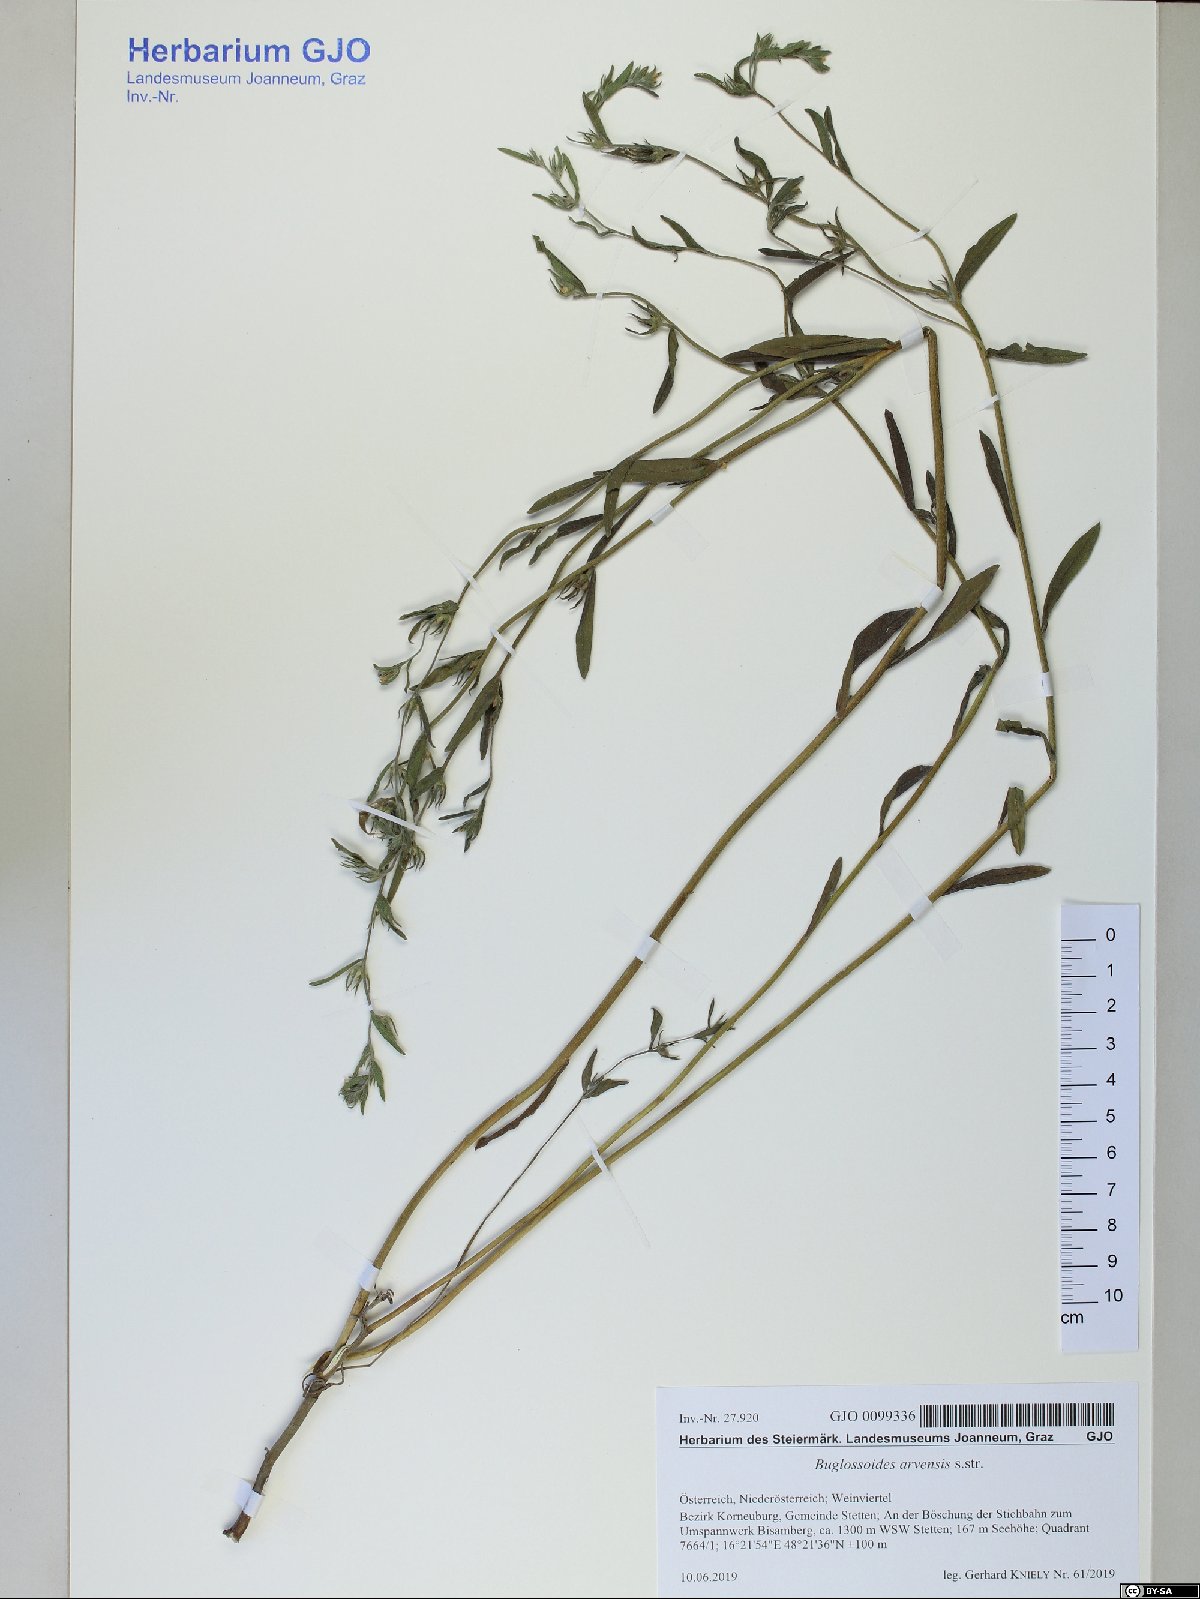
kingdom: Plantae
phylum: Tracheophyta
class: Magnoliopsida
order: Boraginales
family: Boraginaceae
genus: Buglossoides
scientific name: Buglossoides arvensis
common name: Corn gromwell
